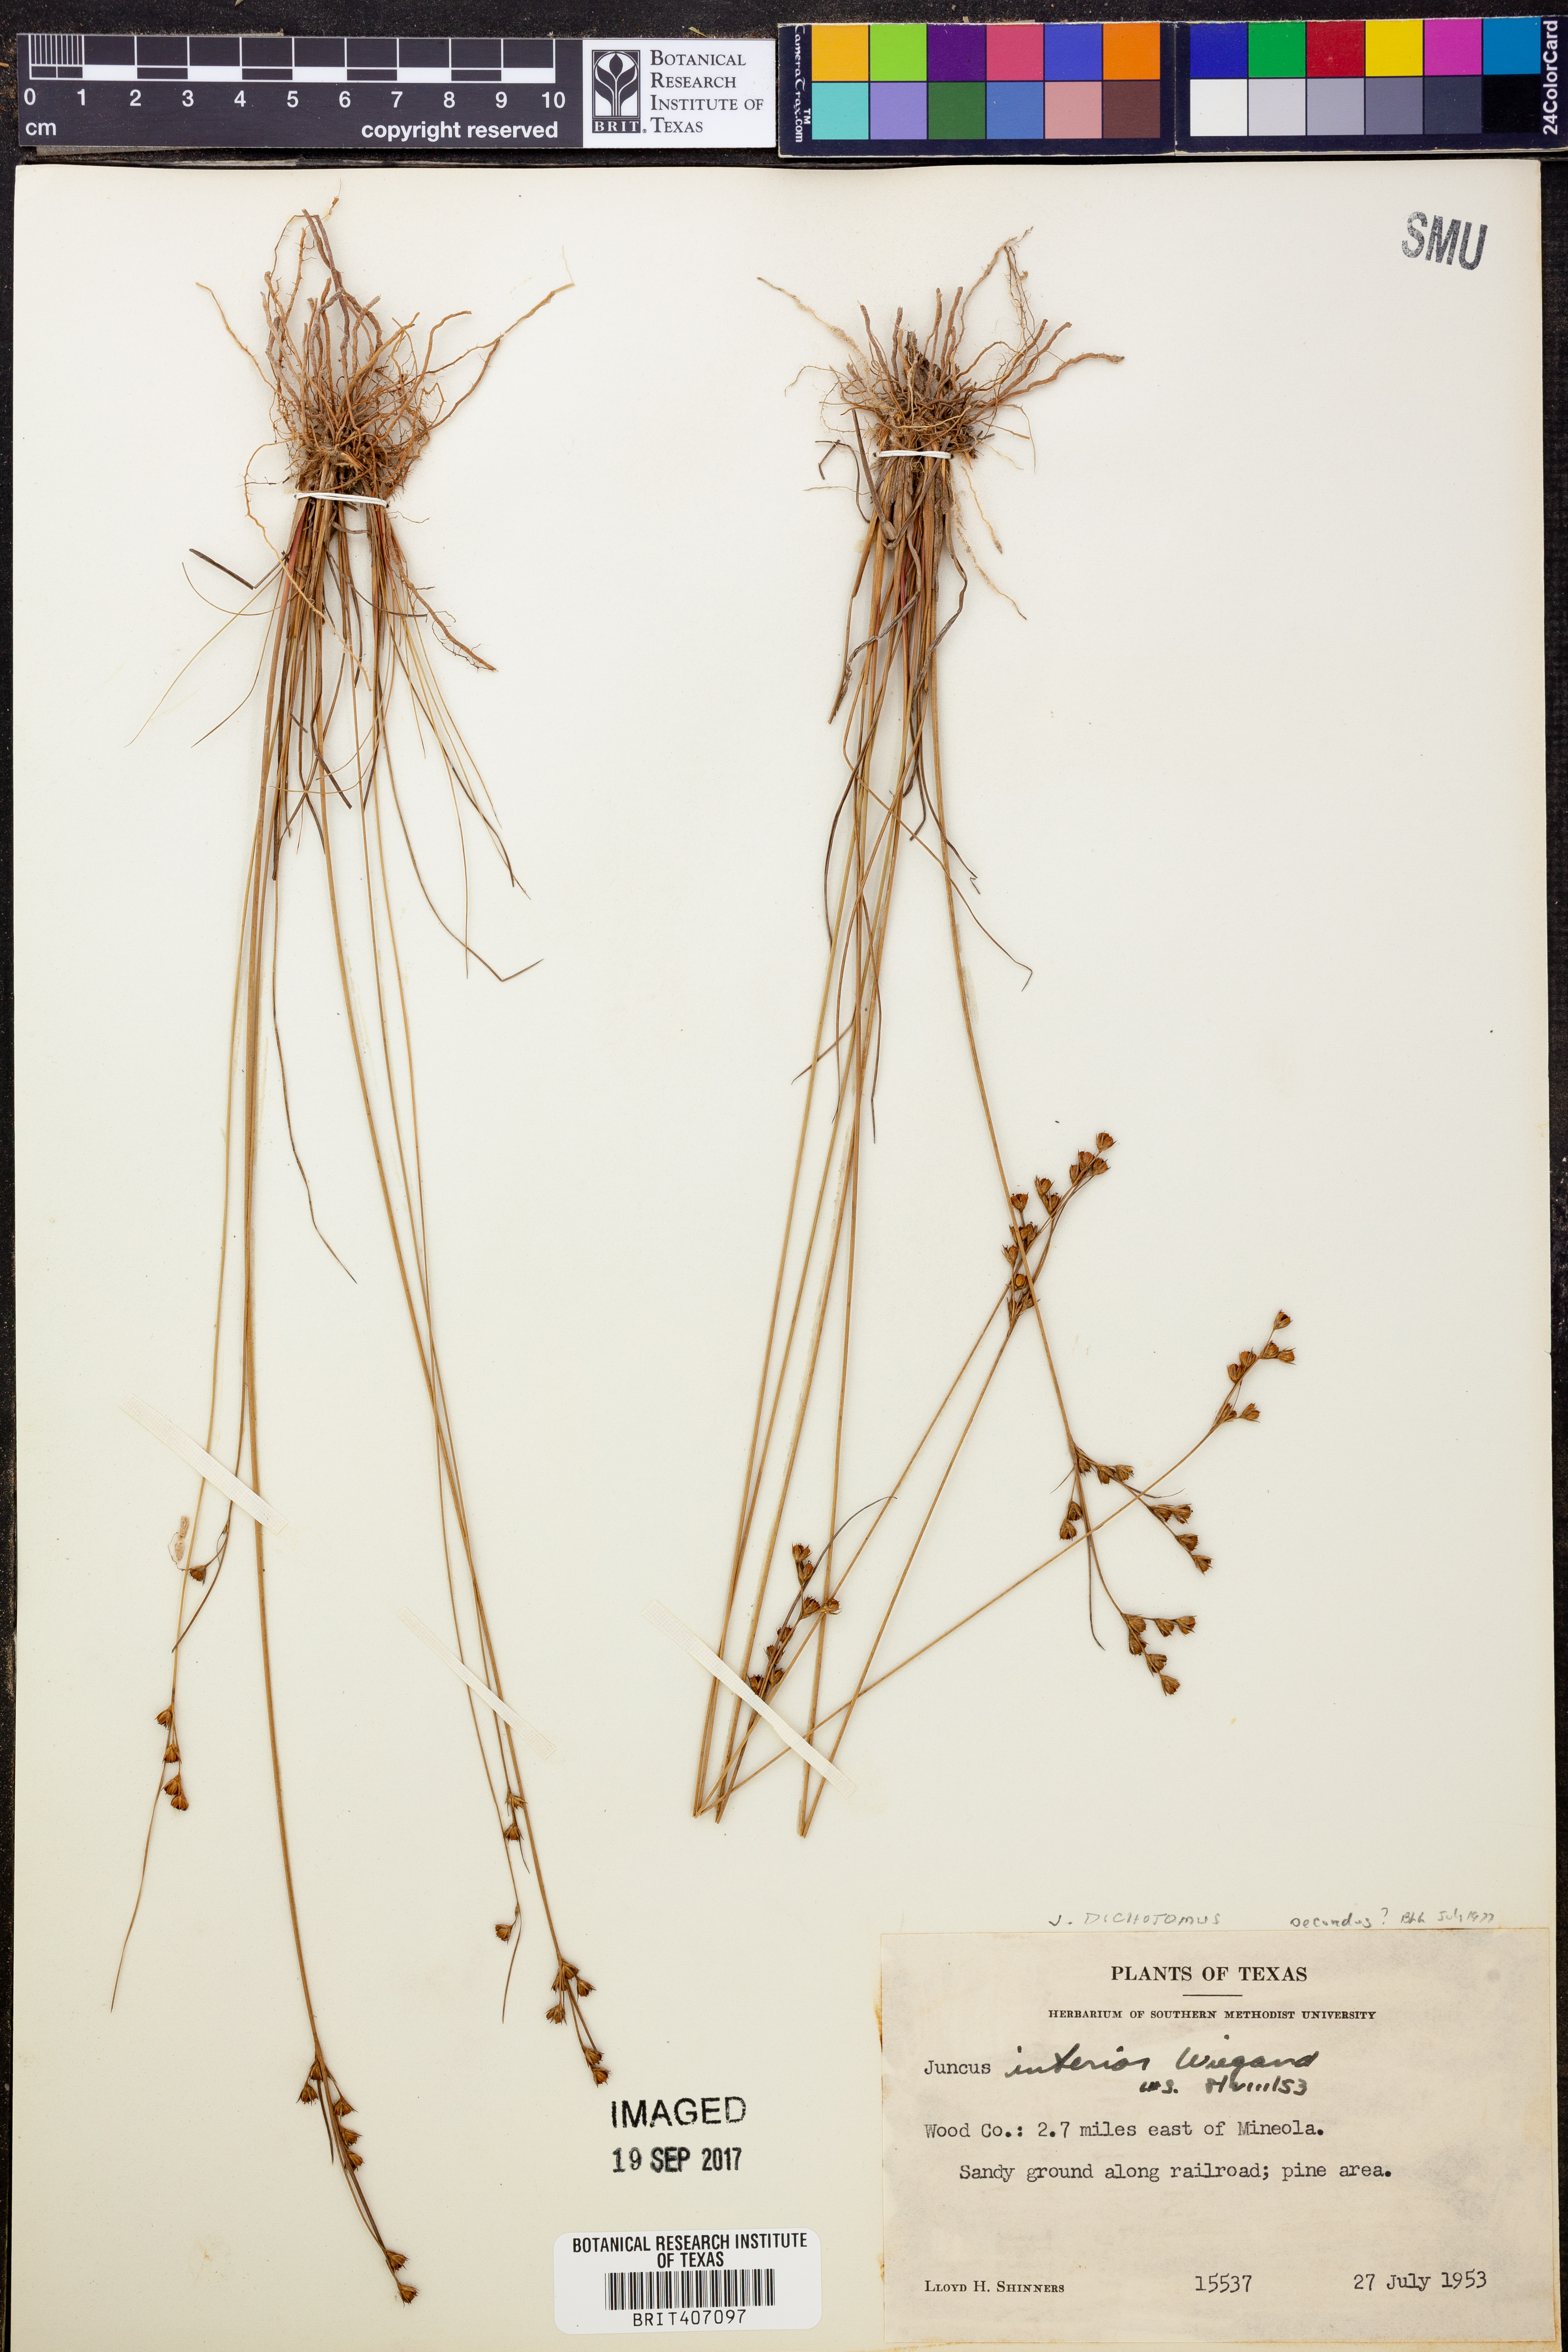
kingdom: Plantae
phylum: Tracheophyta
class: Liliopsida
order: Poales
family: Juncaceae
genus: Juncus
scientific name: Juncus dichotomus
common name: Forked rush
